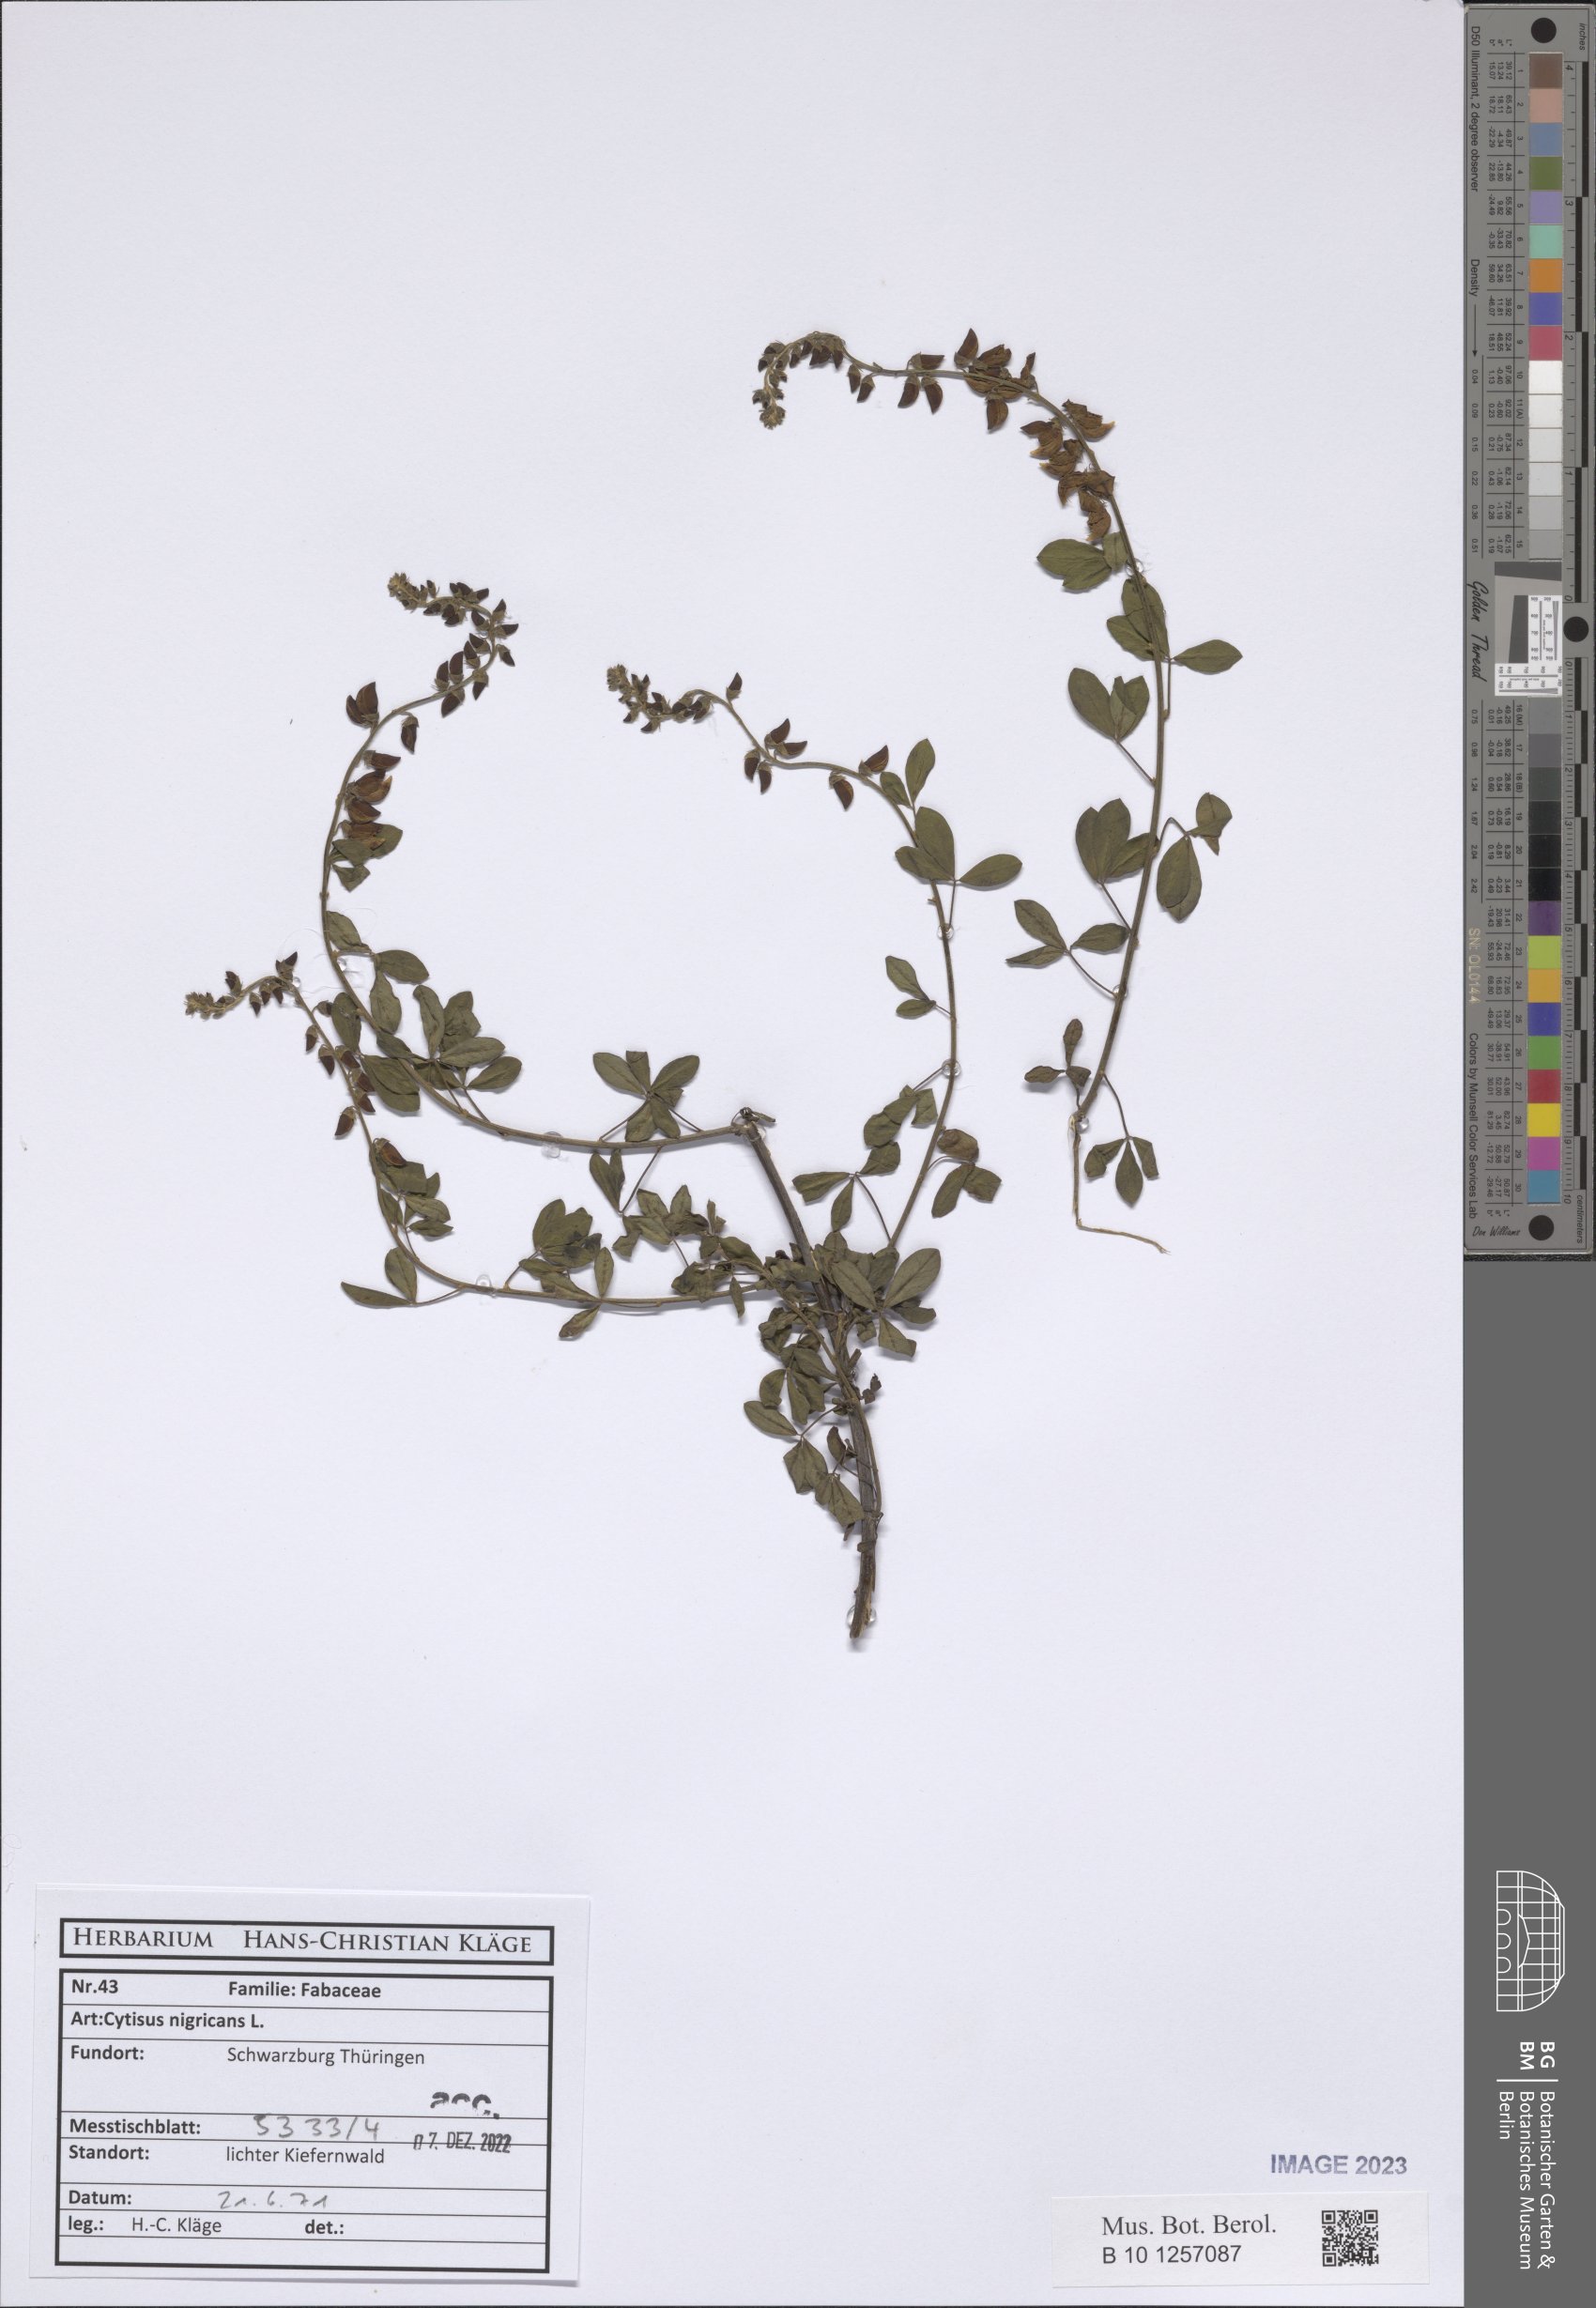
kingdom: Plantae
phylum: Tracheophyta
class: Magnoliopsida
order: Fabales
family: Fabaceae
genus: Cytisus
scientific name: Cytisus nigricans
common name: Black broom
